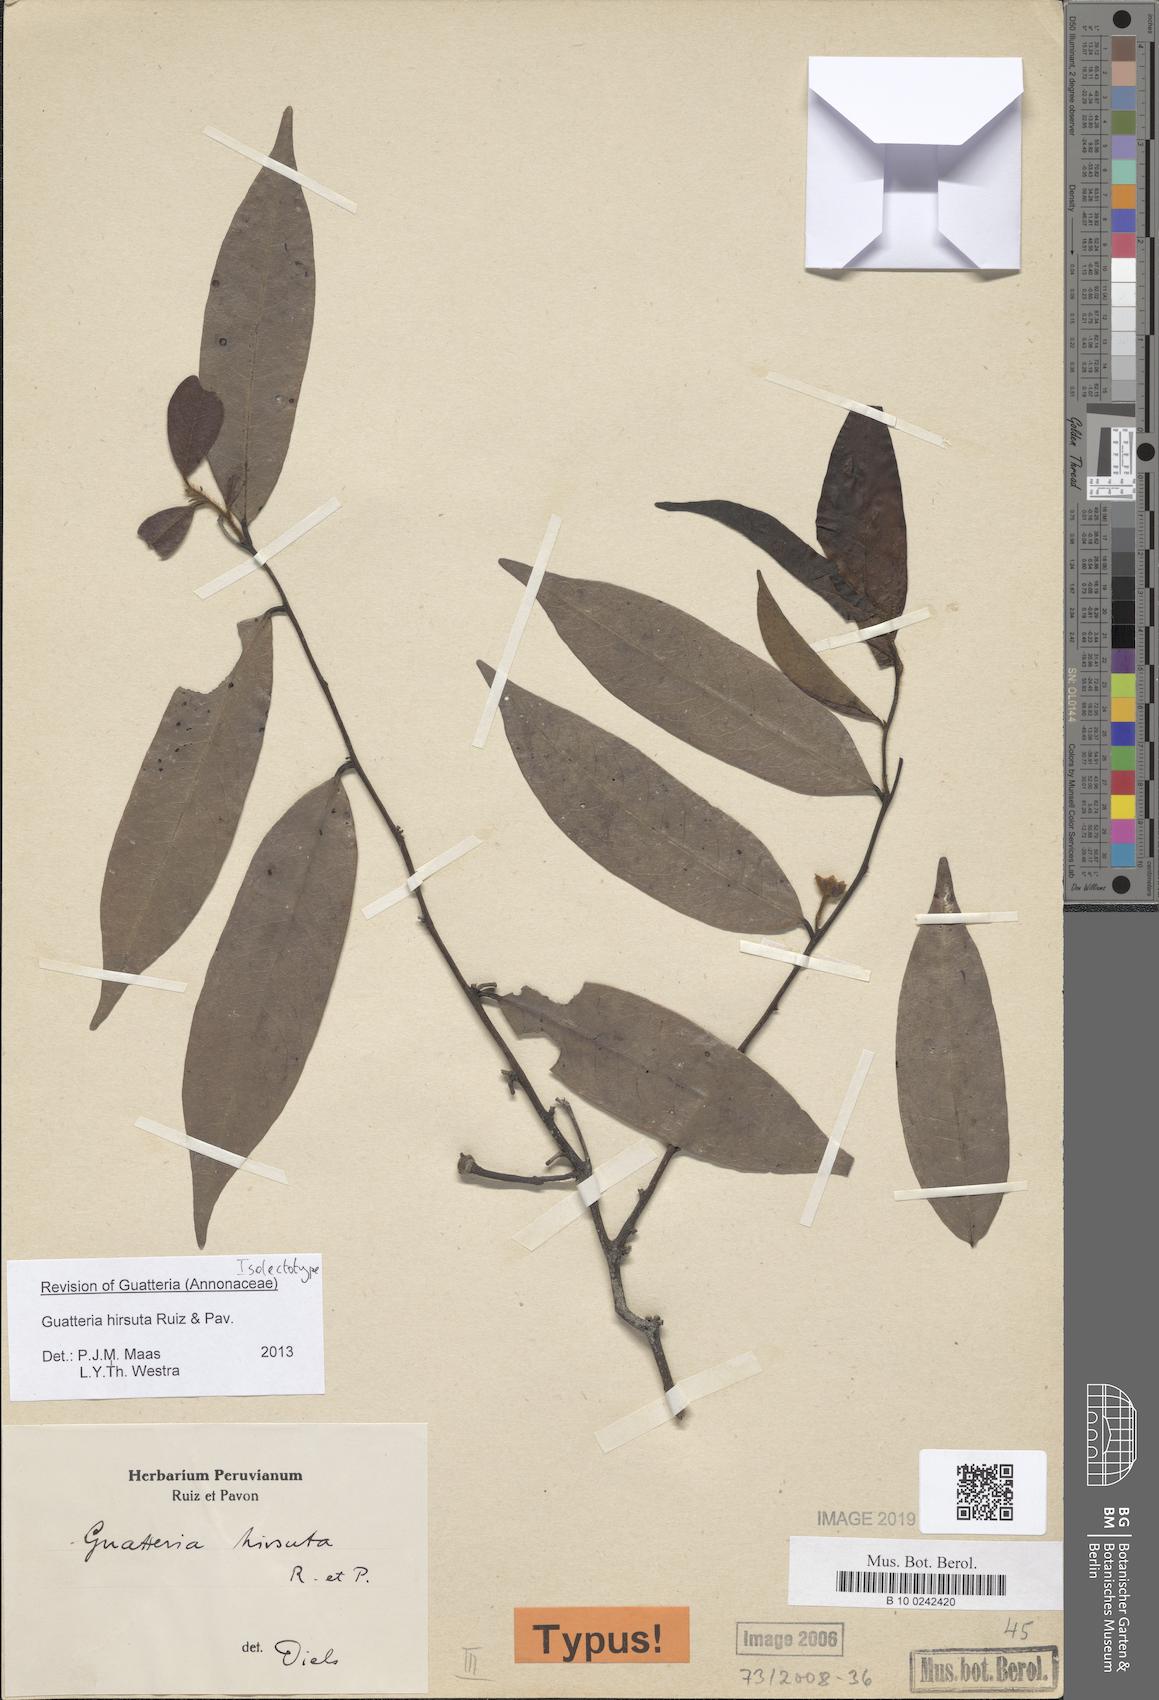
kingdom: Plantae
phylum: Tracheophyta
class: Magnoliopsida
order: Magnoliales
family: Annonaceae
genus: Guatteria
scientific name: Guatteria hirsuta
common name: Laurel
